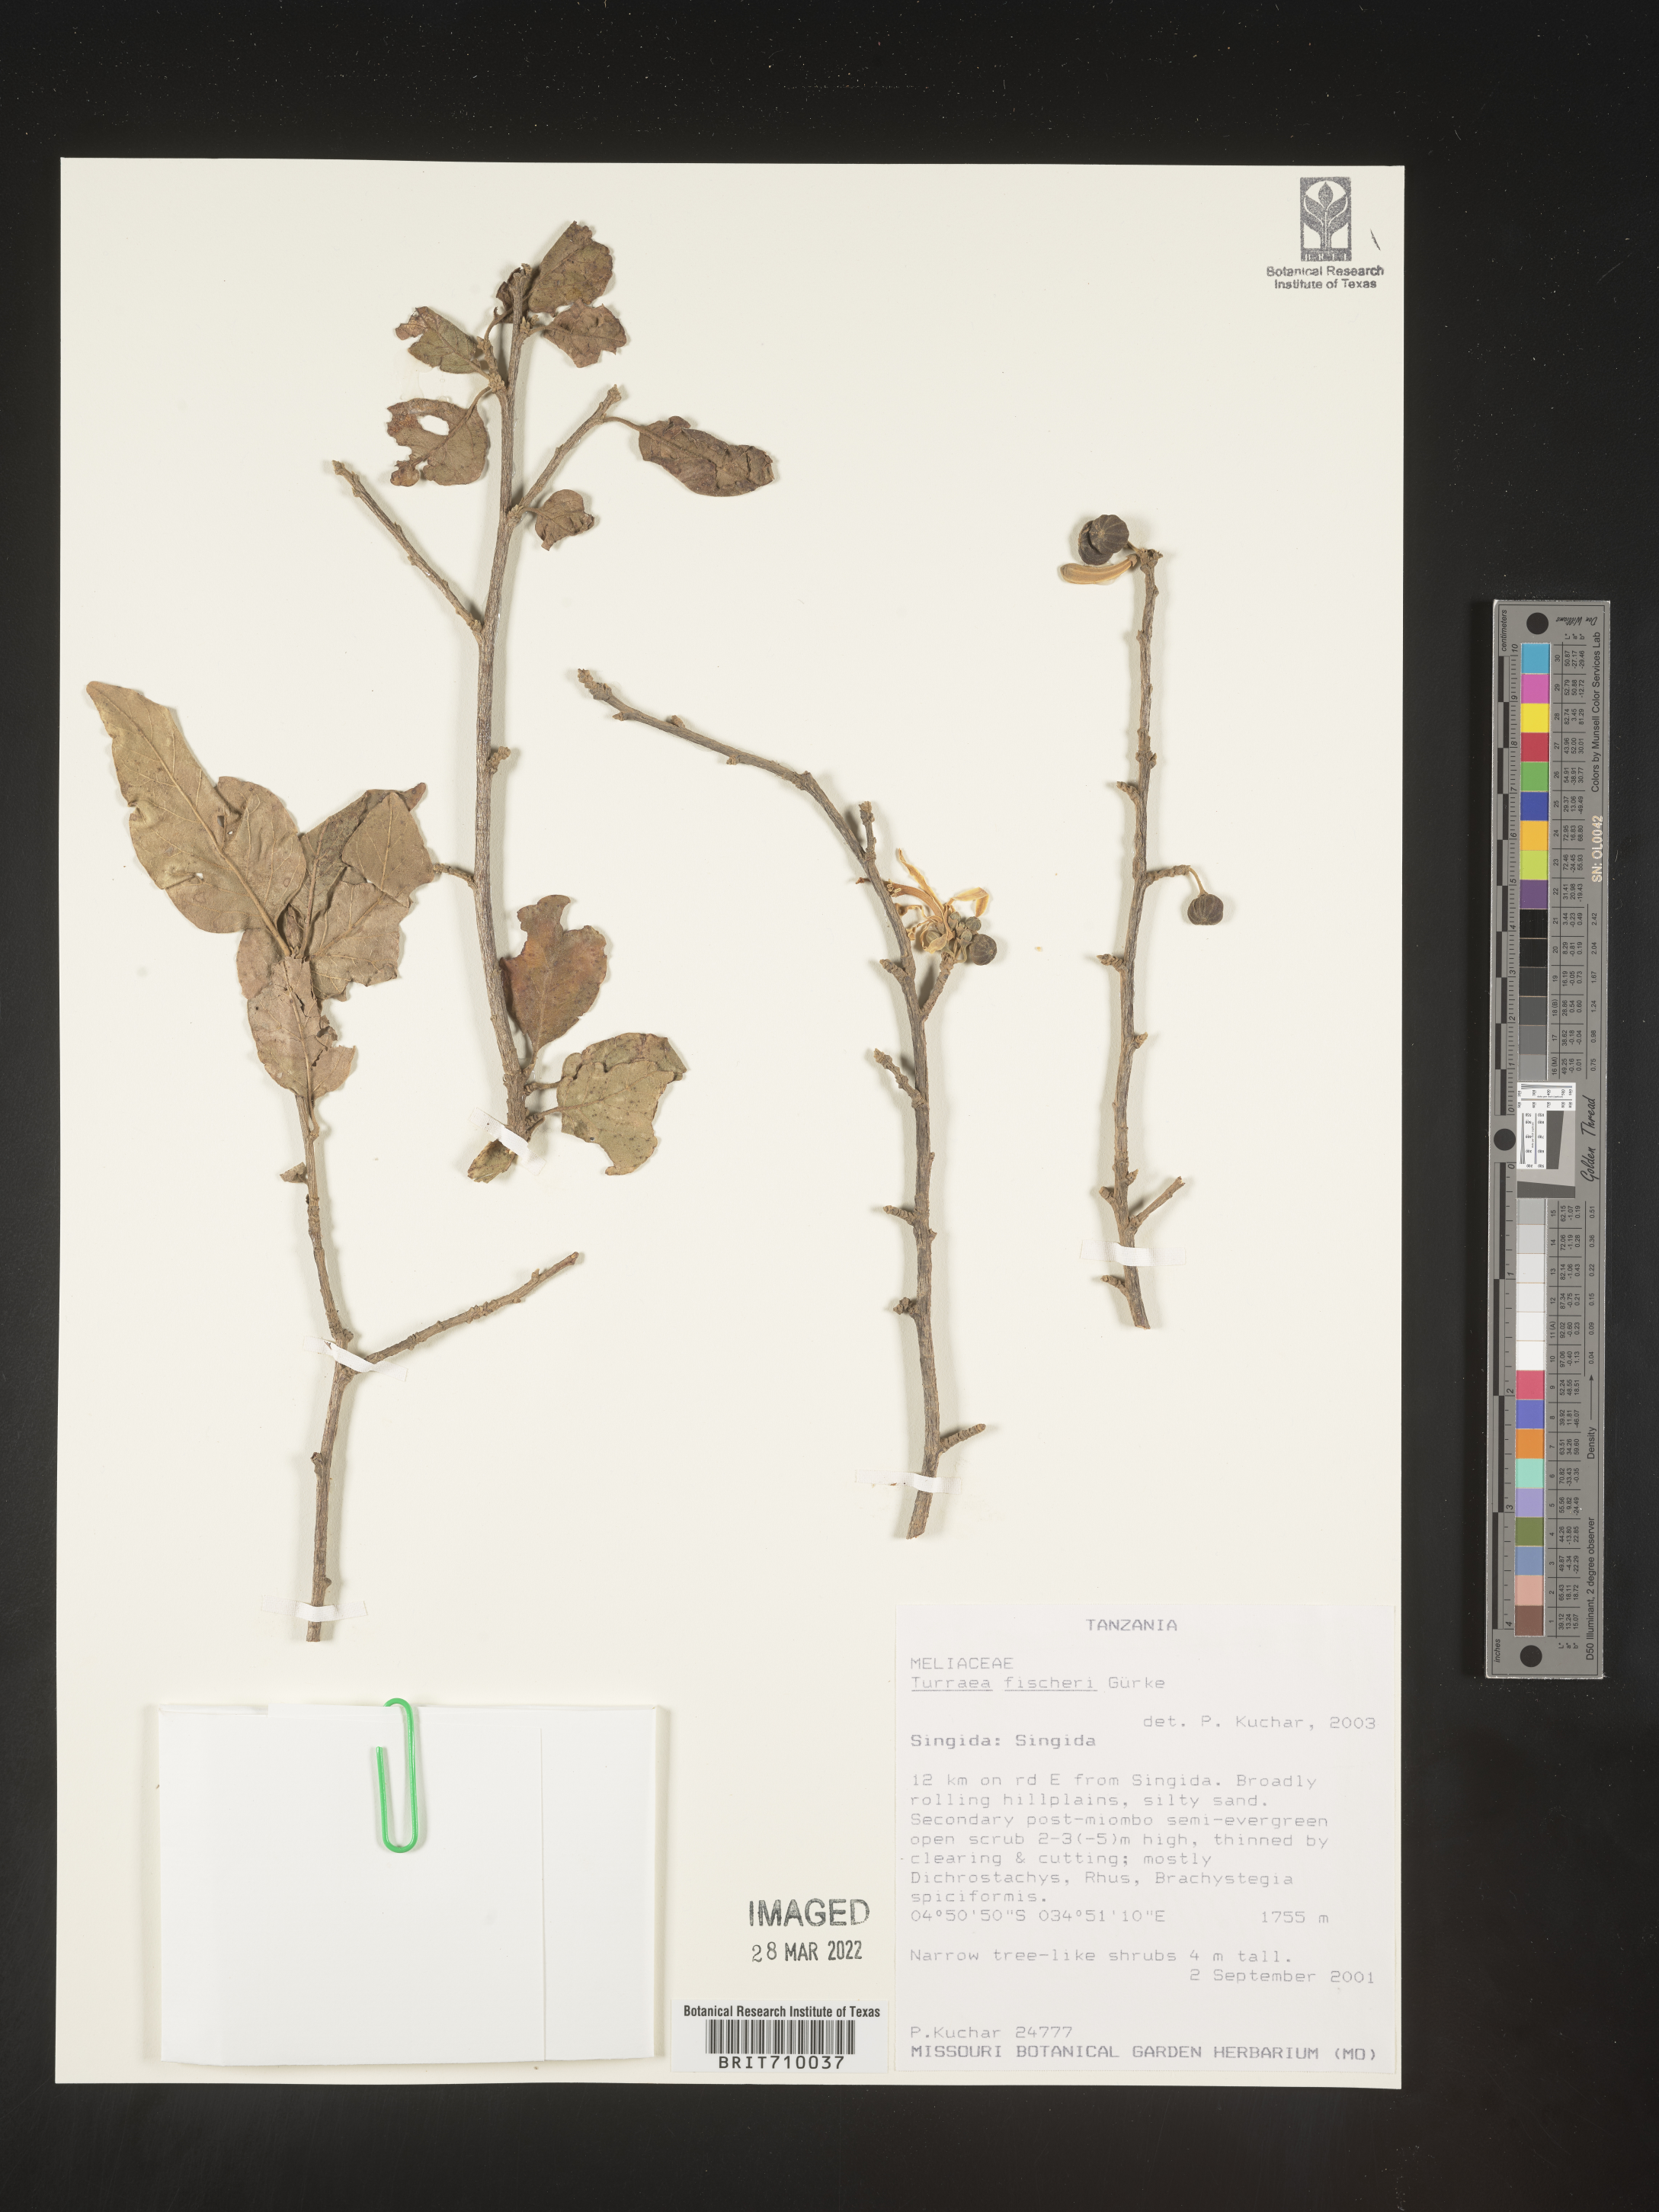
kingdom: Plantae
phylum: Tracheophyta
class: Magnoliopsida
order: Sapindales
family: Meliaceae
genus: Turraea
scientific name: Turraea
